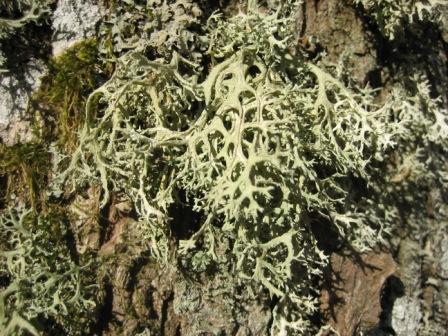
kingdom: Fungi
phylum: Ascomycota
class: Lecanoromycetes
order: Lecanorales
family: Parmeliaceae
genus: Evernia
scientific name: Evernia prunastri
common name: almindelig slåenlav
